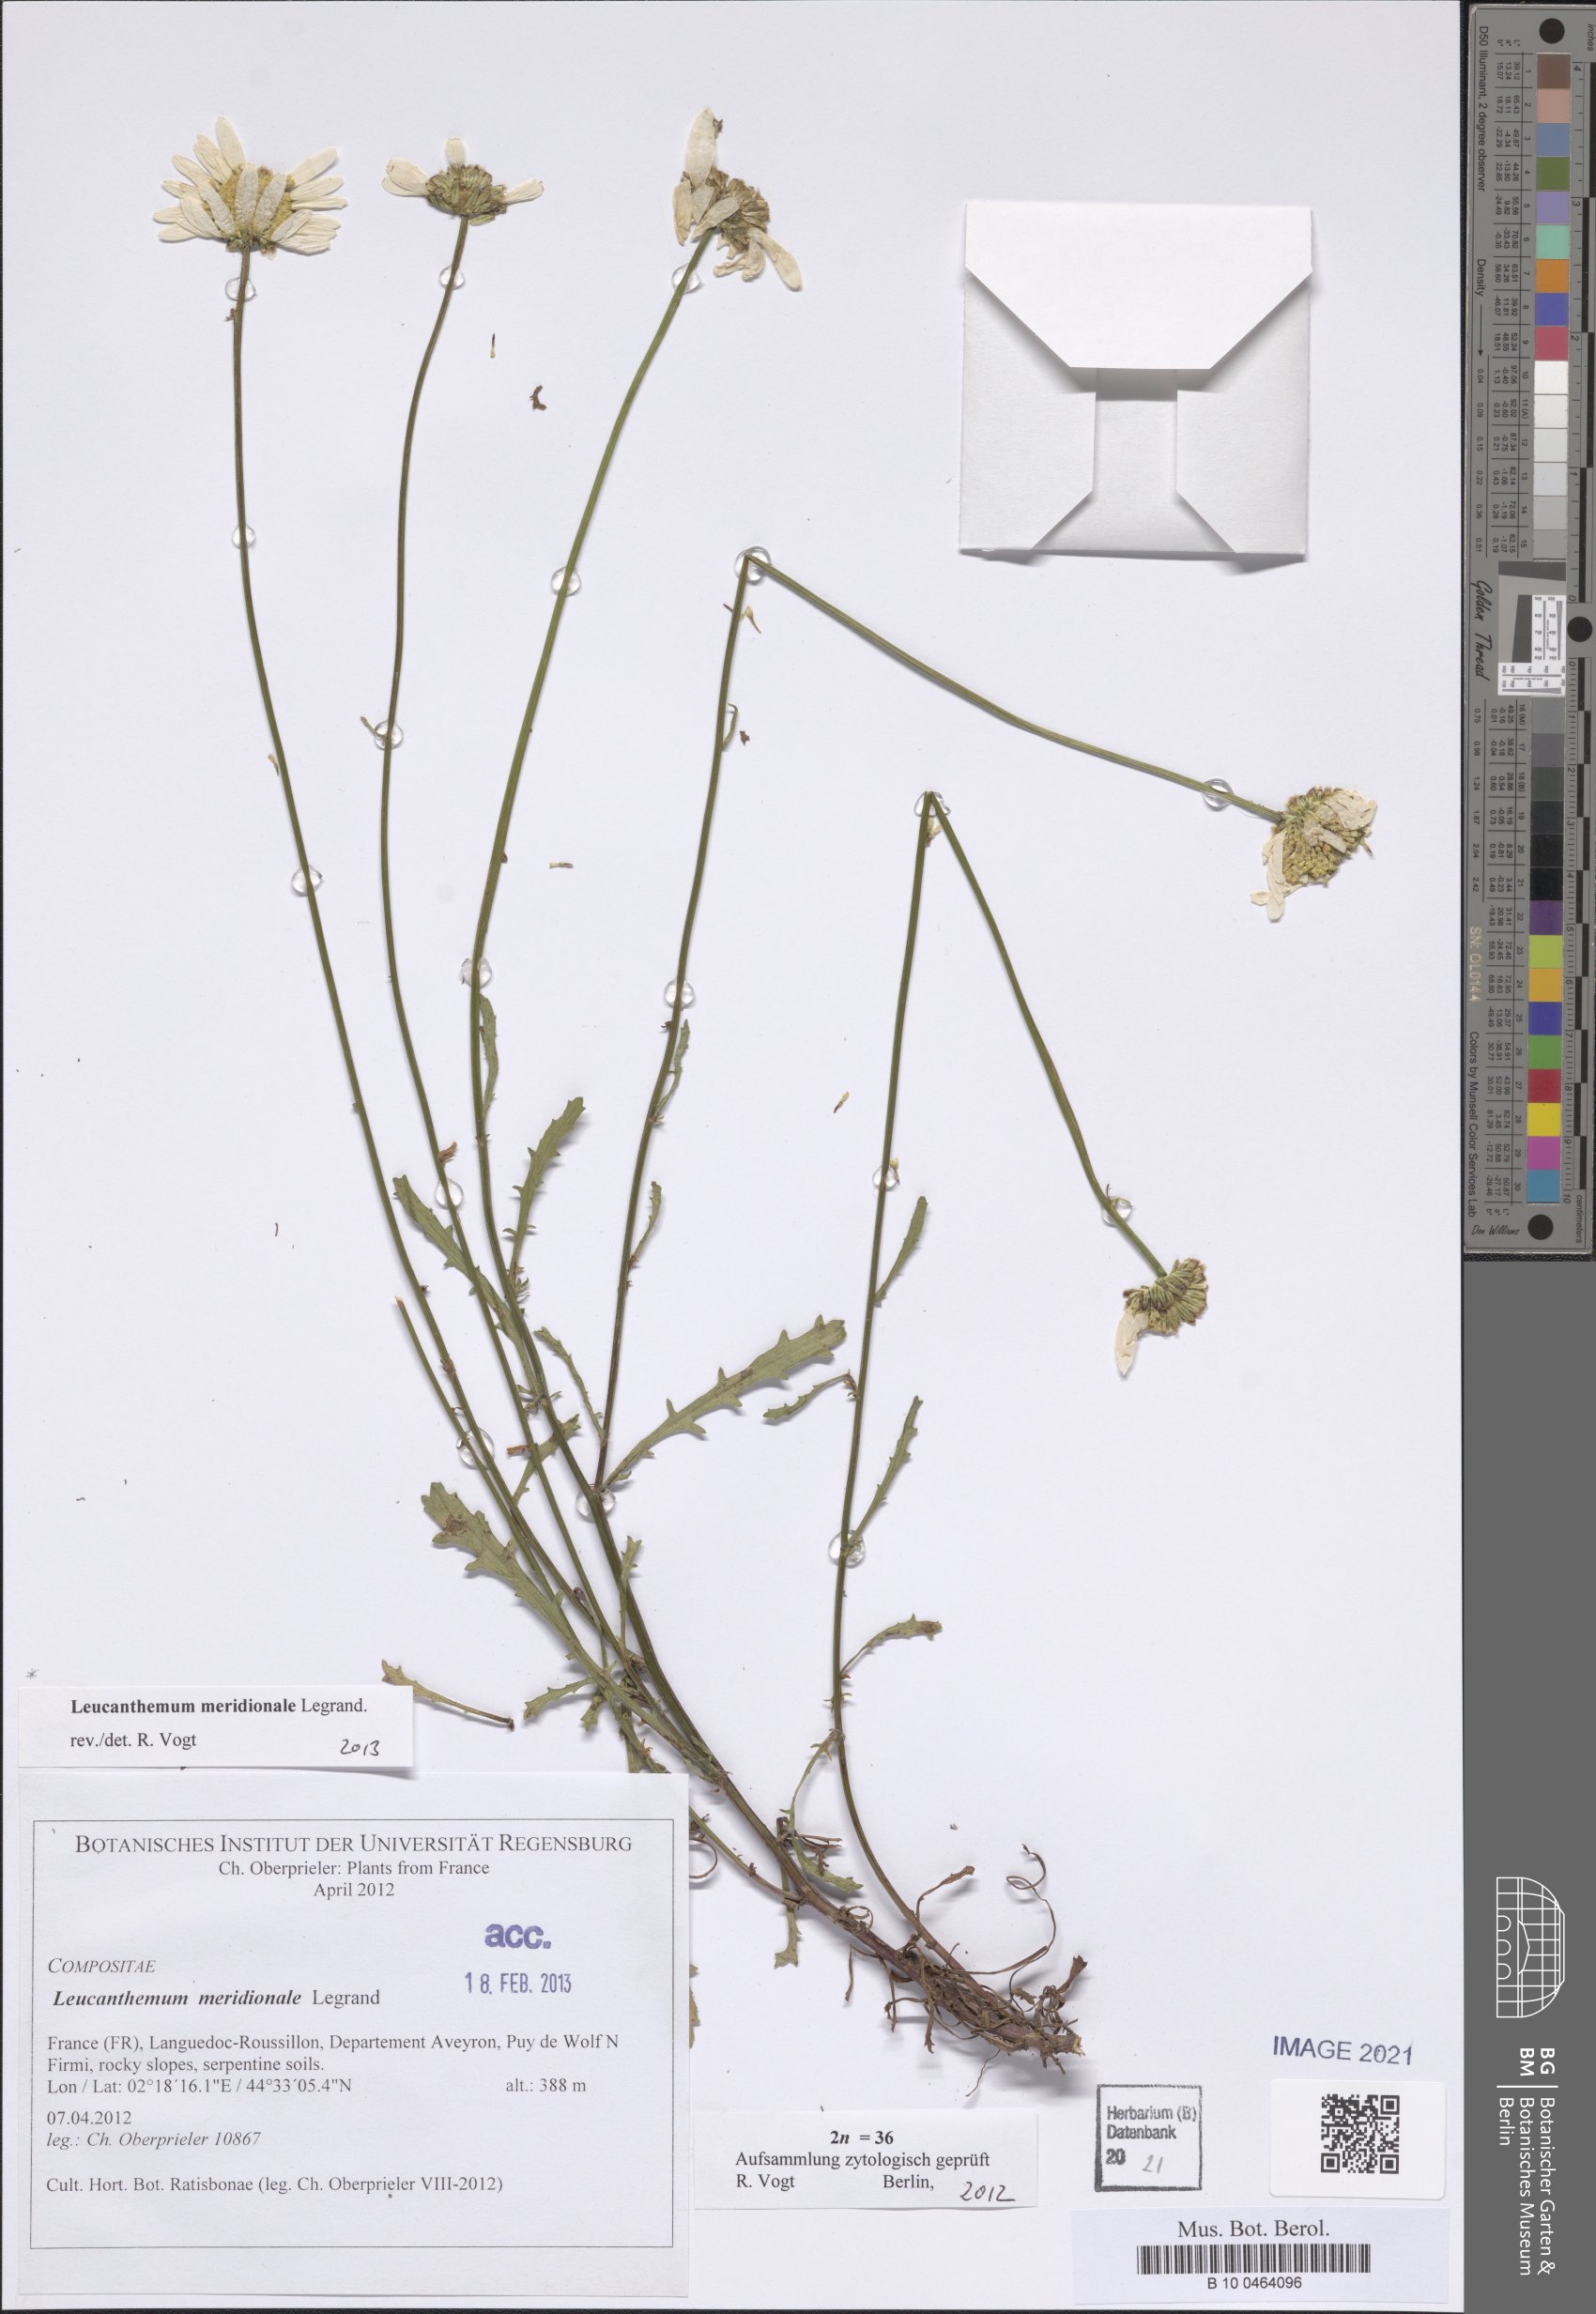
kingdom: Plantae
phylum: Tracheophyta
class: Magnoliopsida
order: Asterales
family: Asteraceae
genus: Leucanthemum
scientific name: Leucanthemum meridionale
